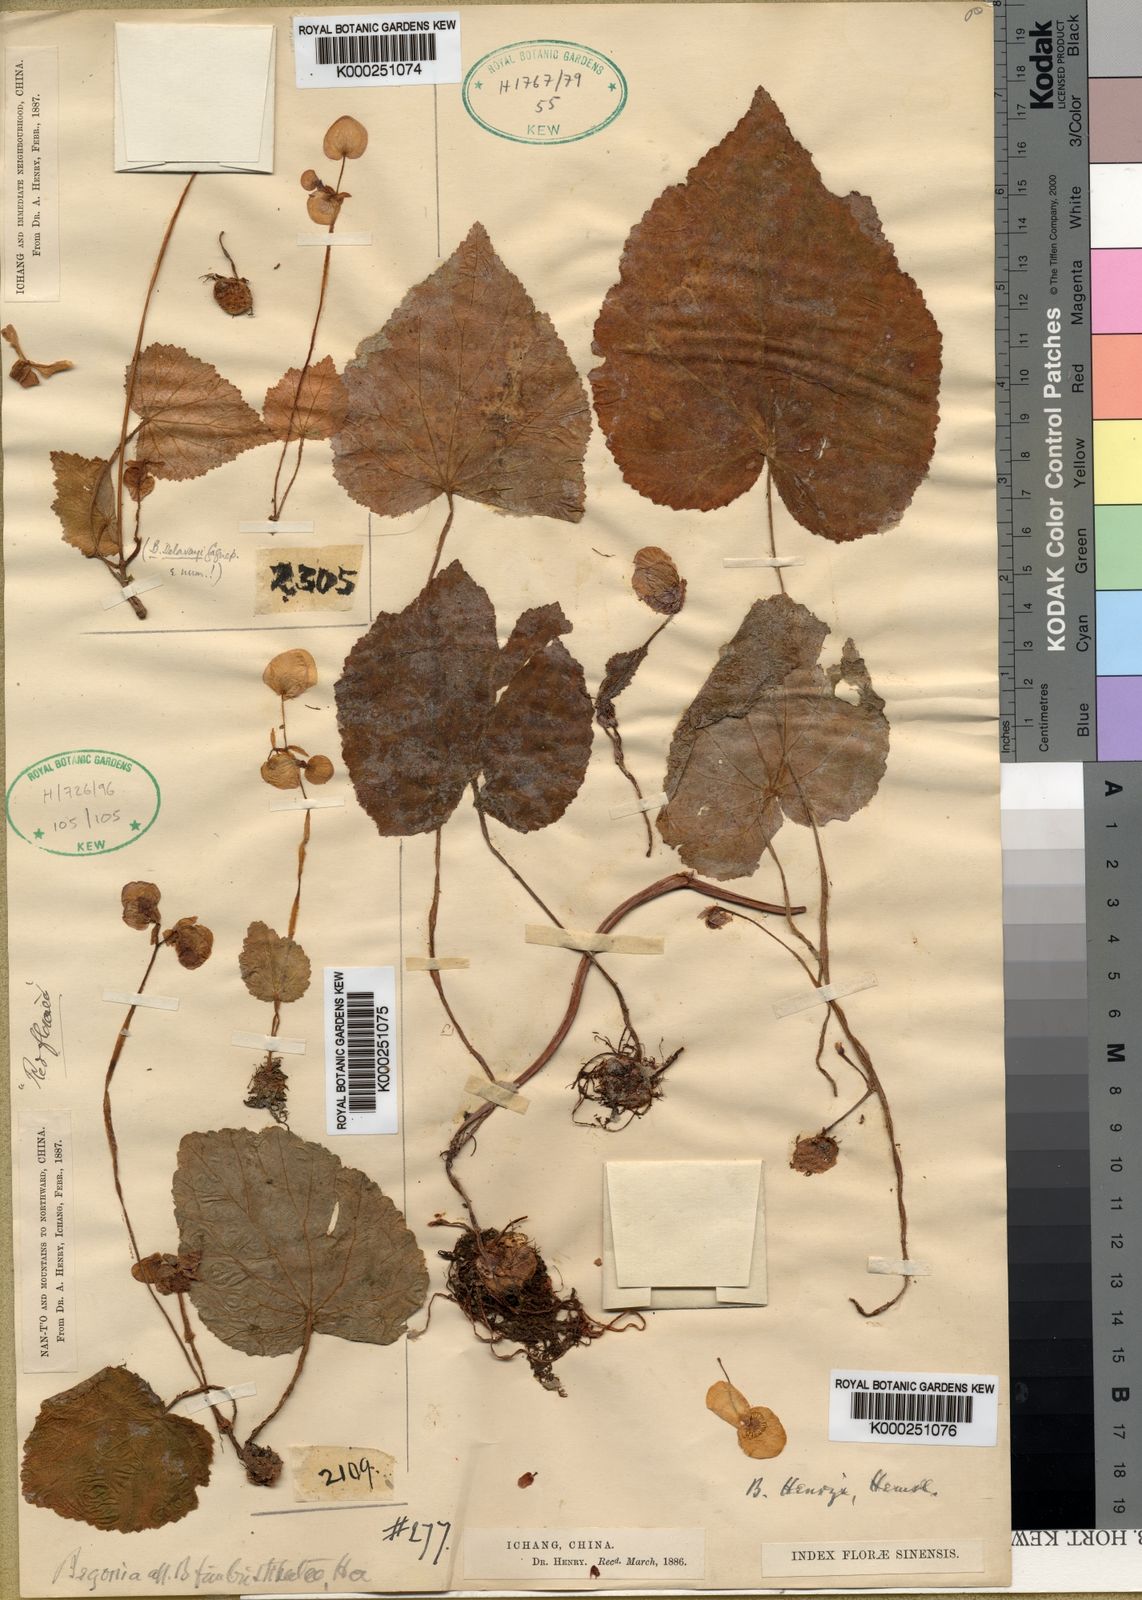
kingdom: Plantae
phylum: Tracheophyta
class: Magnoliopsida
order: Cucurbitales
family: Begoniaceae
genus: Begonia
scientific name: Begonia chingii
